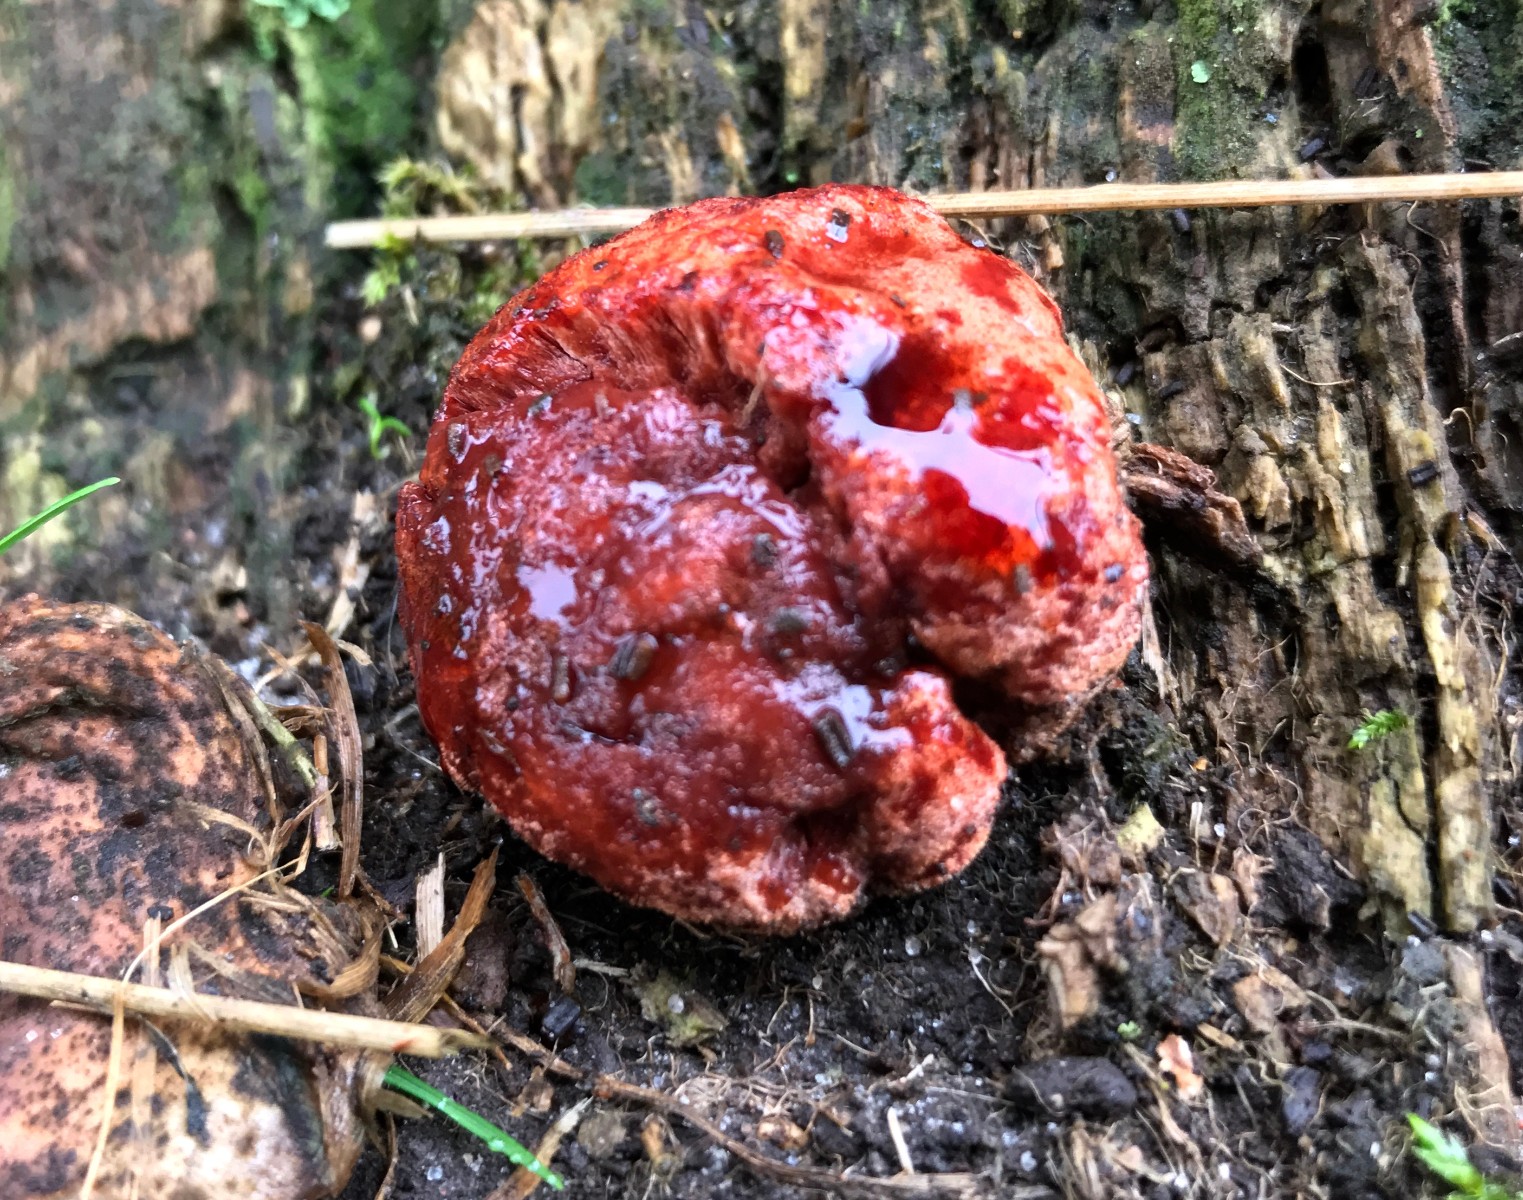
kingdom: Fungi
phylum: Basidiomycota
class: Agaricomycetes
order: Agaricales
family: Fistulinaceae
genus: Fistulina
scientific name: Fistulina hepatica
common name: oksetunge
